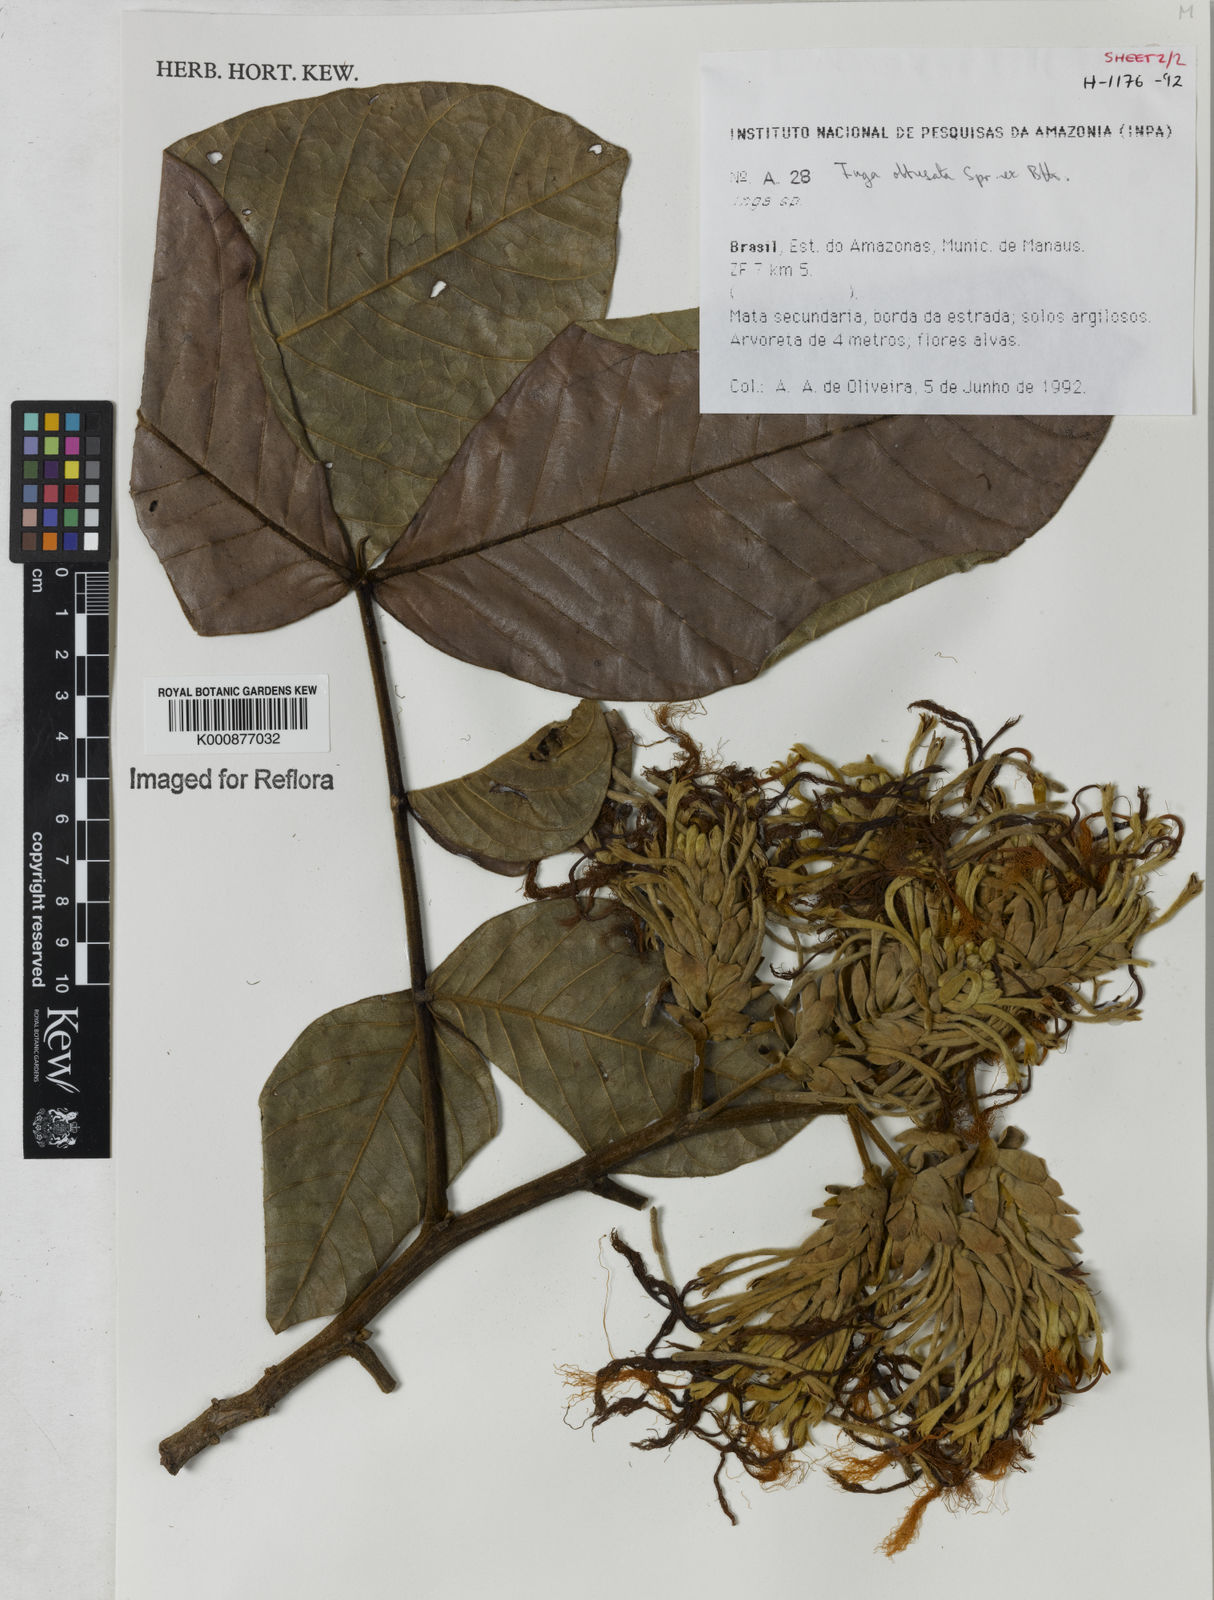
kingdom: Plantae
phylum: Tracheophyta
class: Magnoliopsida
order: Fabales
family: Fabaceae
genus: Inga
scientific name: Inga obtusata
